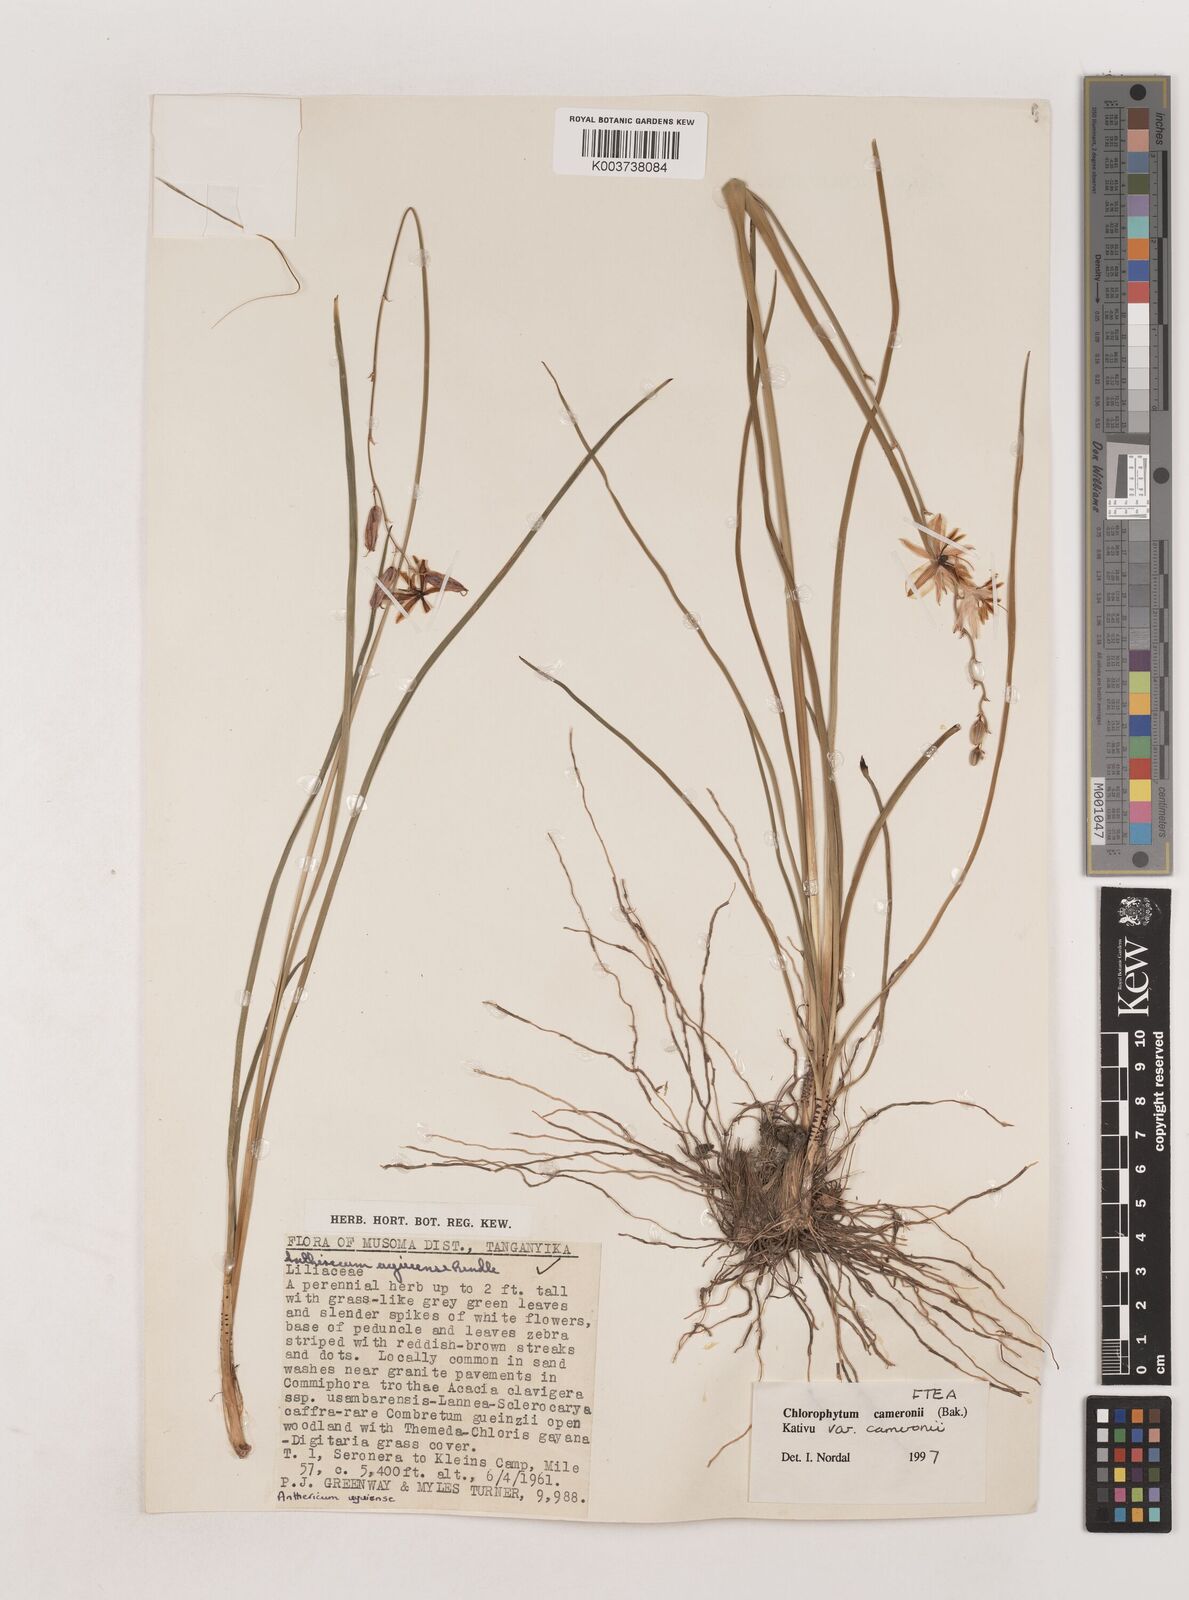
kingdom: Plantae
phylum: Tracheophyta
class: Liliopsida
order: Asparagales
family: Asparagaceae
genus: Chlorophytum
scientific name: Chlorophytum cameronii
